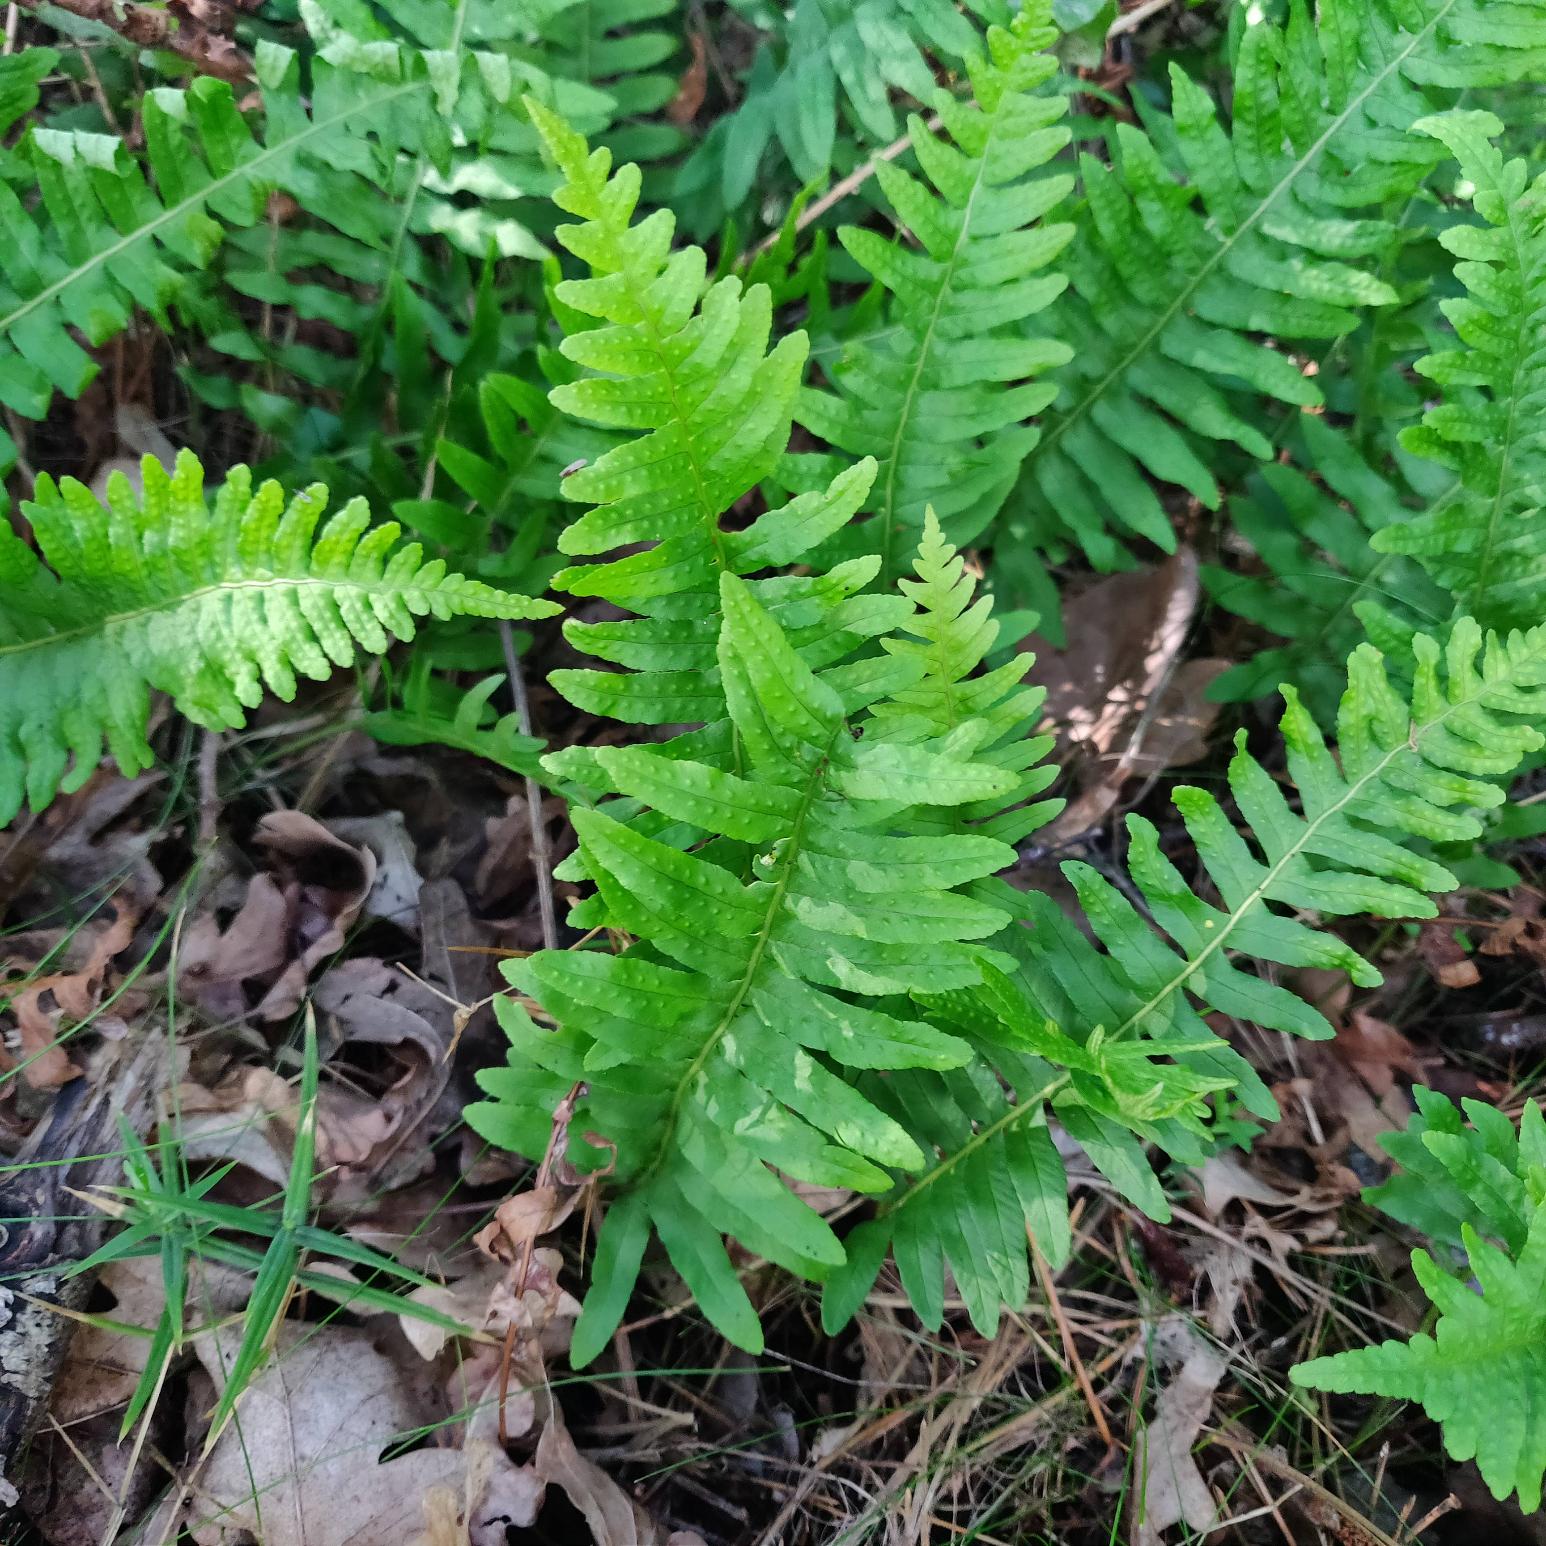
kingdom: Plantae
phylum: Tracheophyta
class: Polypodiopsida
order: Polypodiales
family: Polypodiaceae
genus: Polypodium
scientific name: Polypodium vulgare
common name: Almindelig engelsød
